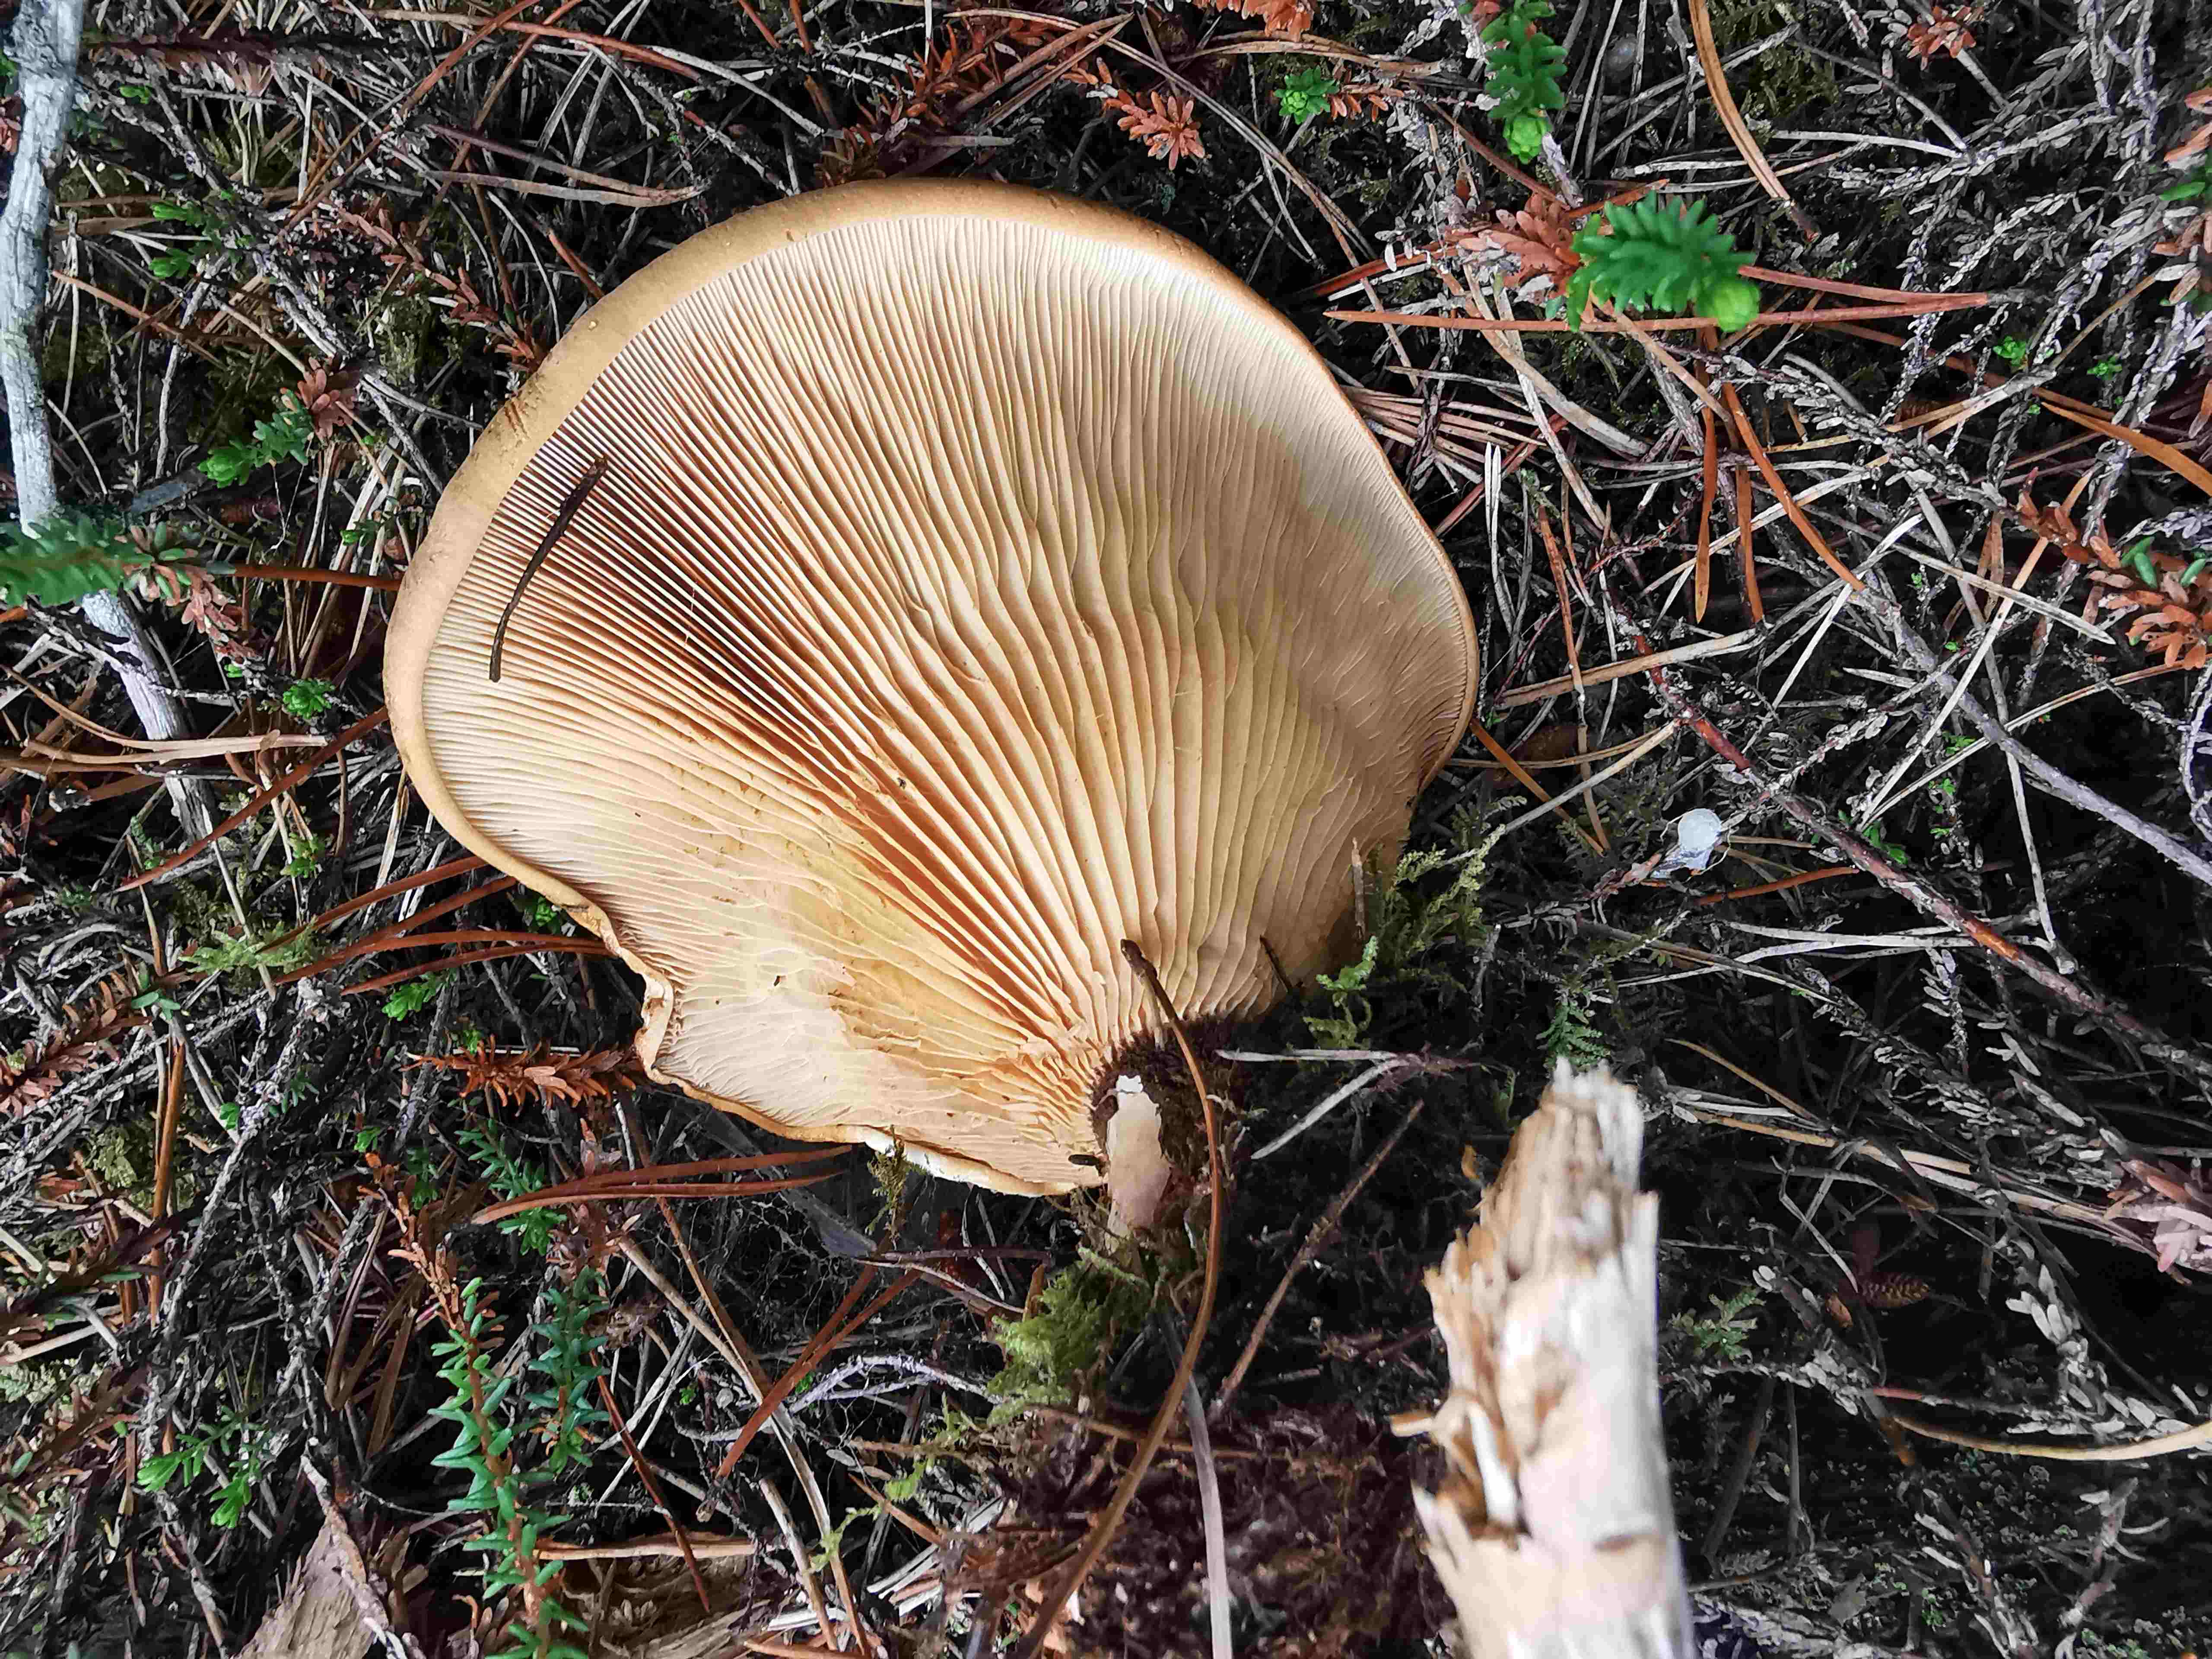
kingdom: Fungi
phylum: Basidiomycota
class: Agaricomycetes
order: Boletales
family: Tapinellaceae
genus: Tapinella
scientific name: Tapinella atrotomentosa
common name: sortfiltet viftesvamp
